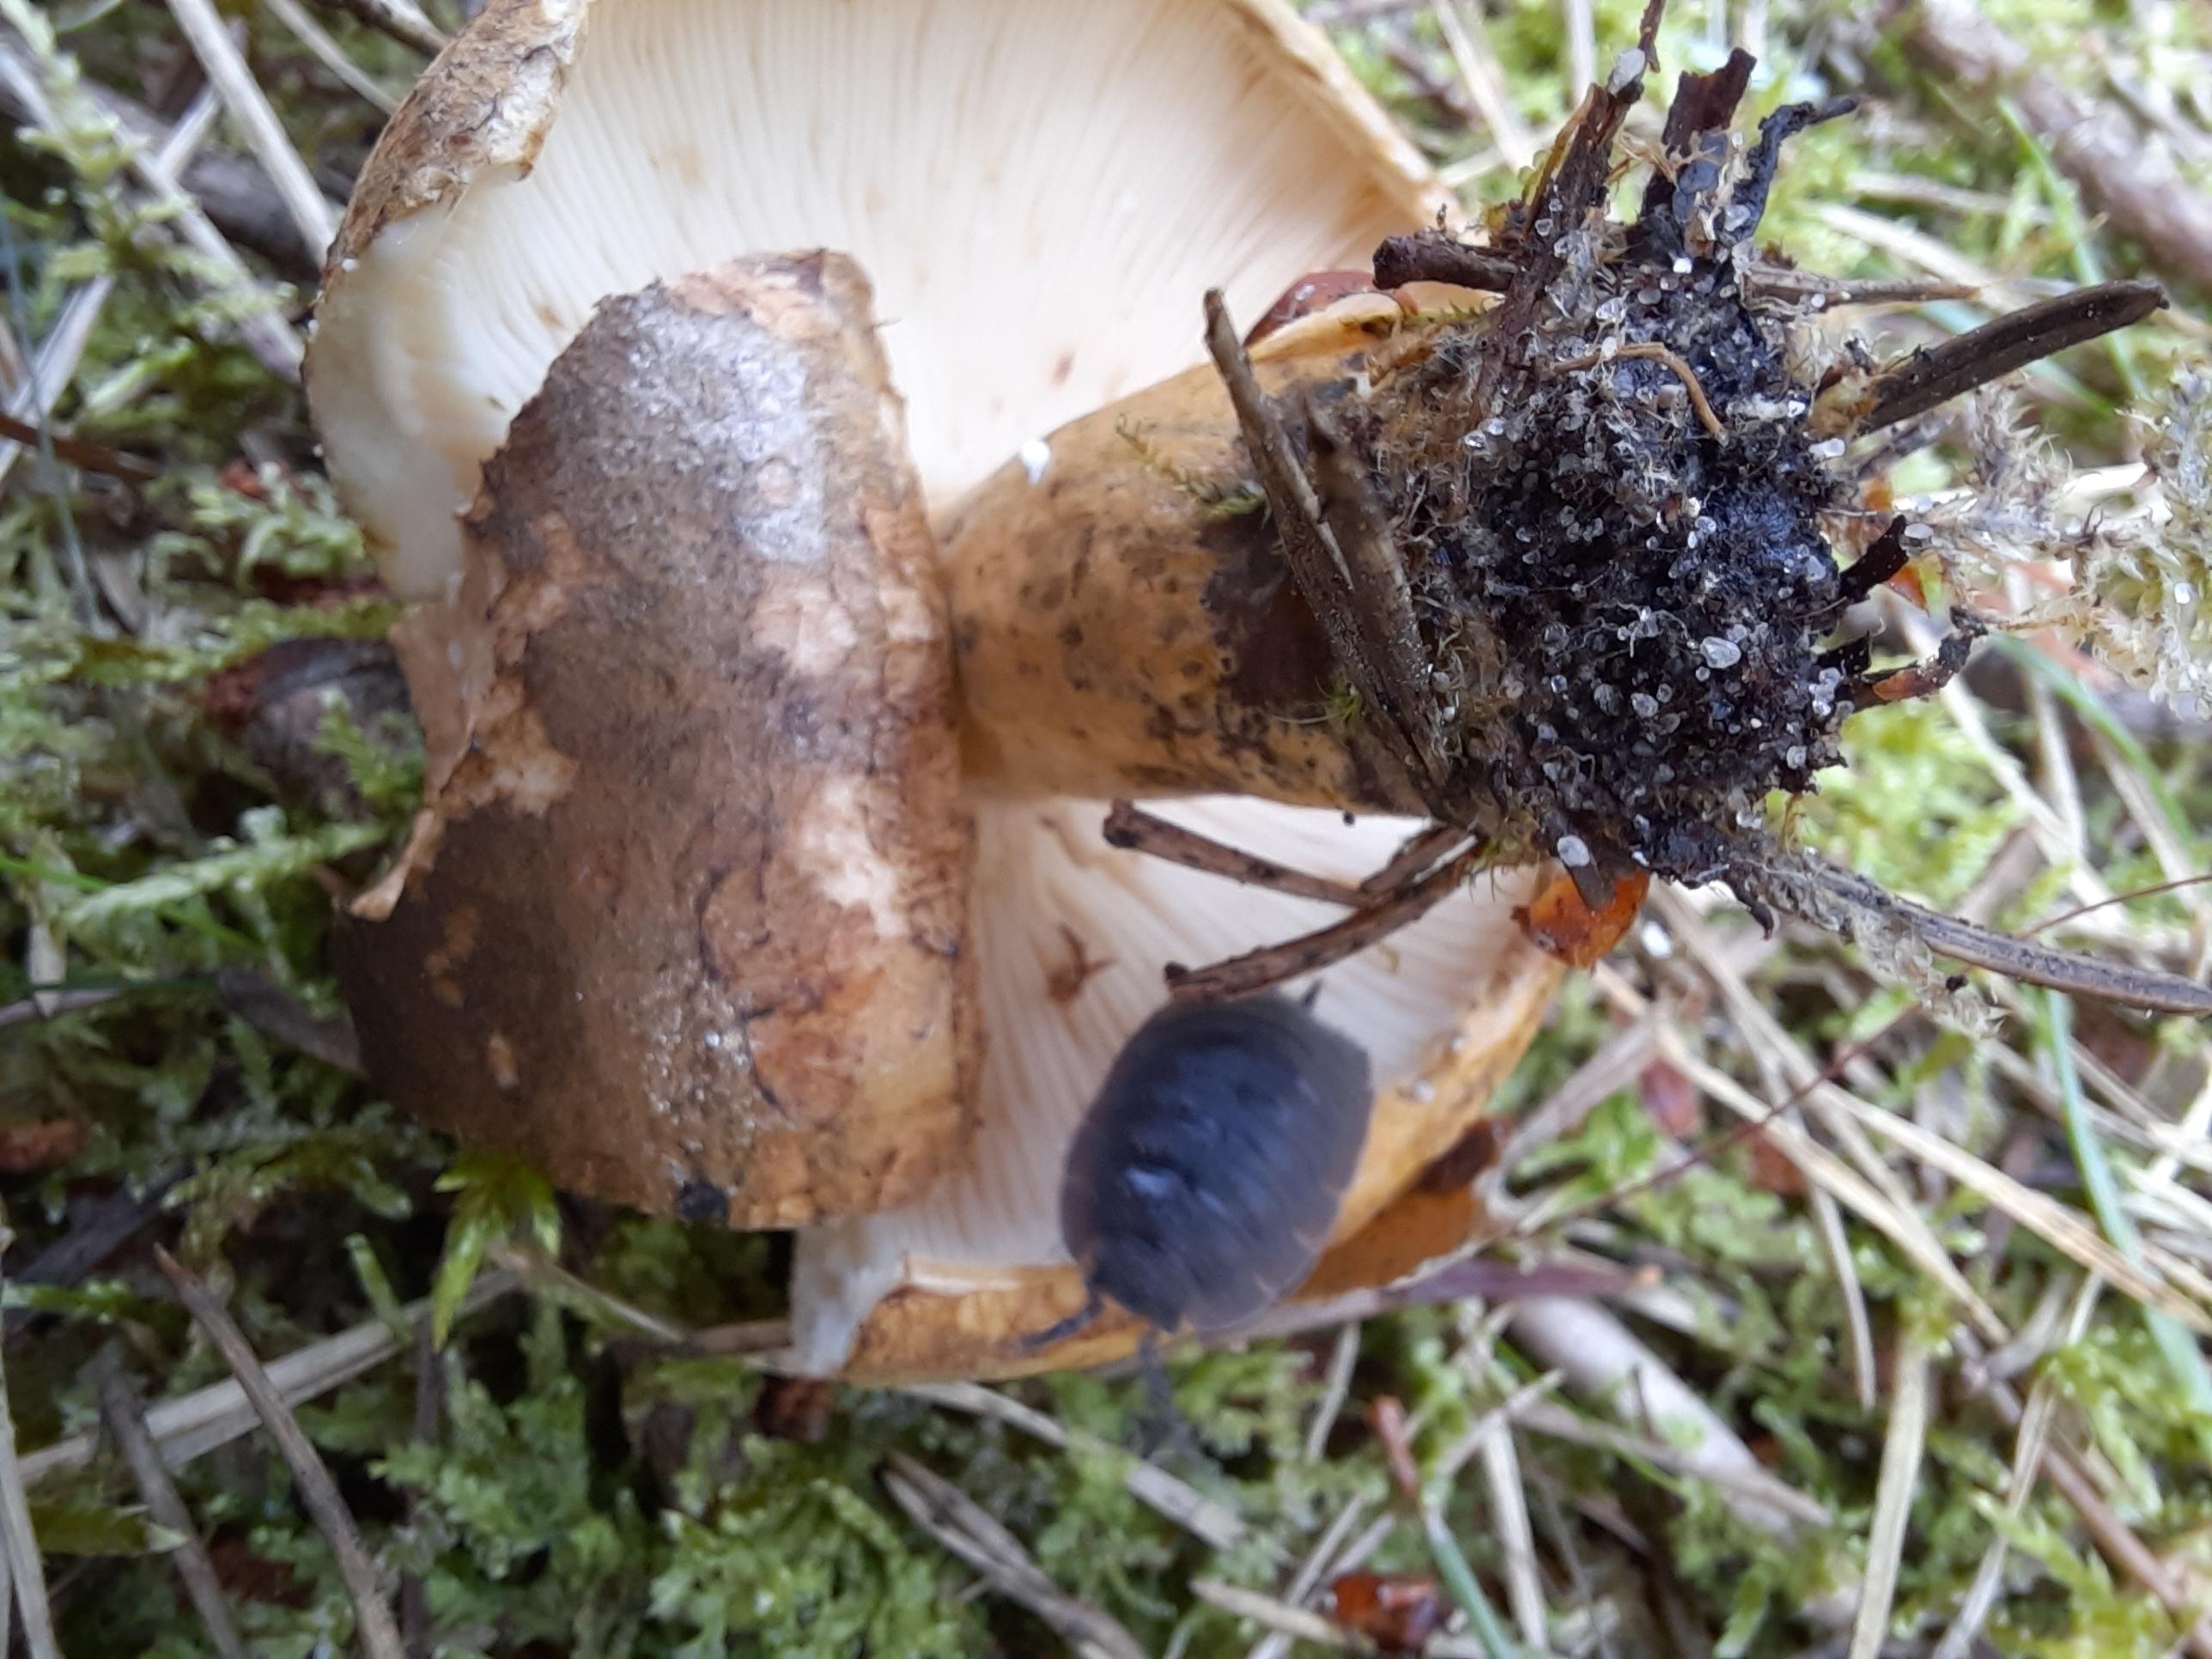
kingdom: Fungi
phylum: Basidiomycota
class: Agaricomycetes
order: Russulales
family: Russulaceae
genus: Lactarius
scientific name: Lactarius necator
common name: manddraber-mælkehat
